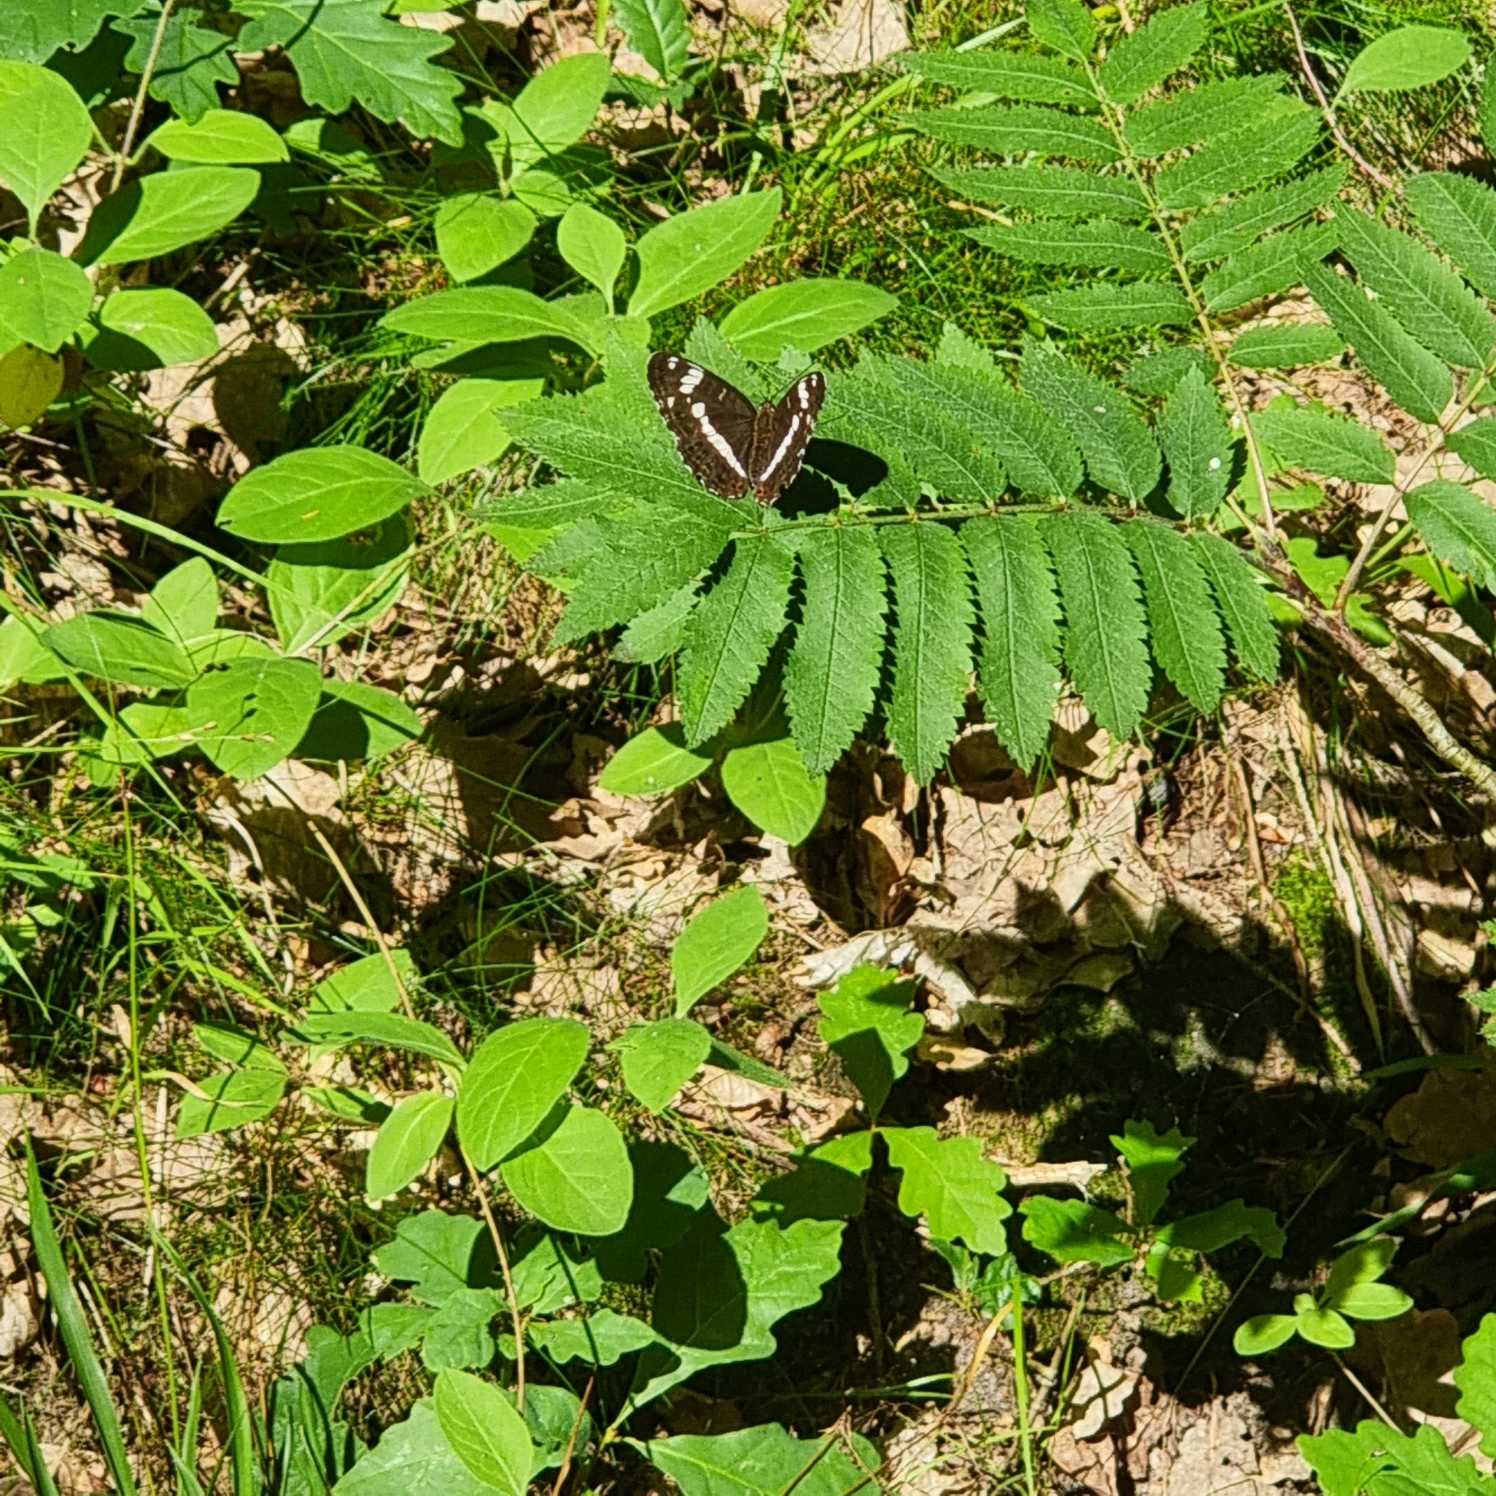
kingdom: Animalia
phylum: Arthropoda
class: Insecta
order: Lepidoptera
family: Nymphalidae
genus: Ladoga
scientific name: Ladoga camilla
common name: Hvid admiral
